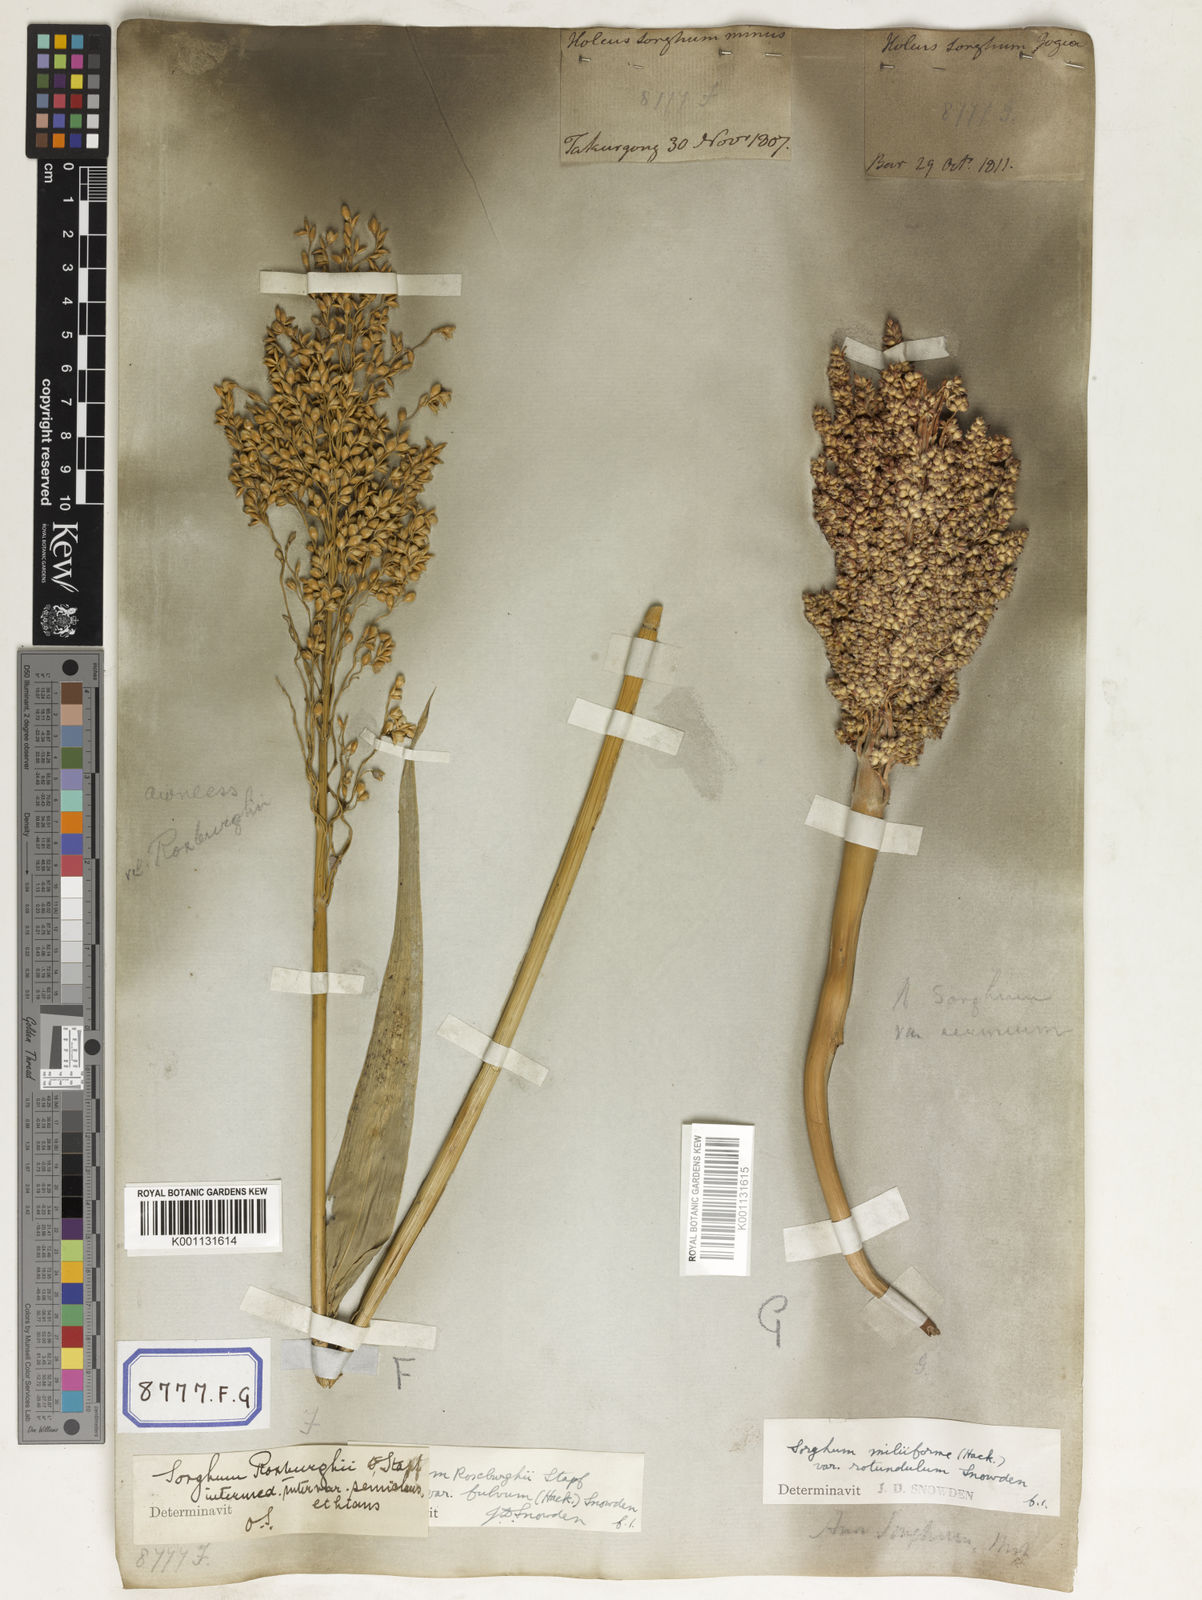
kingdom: Plantae
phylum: Tracheophyta
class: Liliopsida
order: Poales
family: Poaceae
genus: Sorghum
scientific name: Sorghum bicolor
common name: Sorghum
